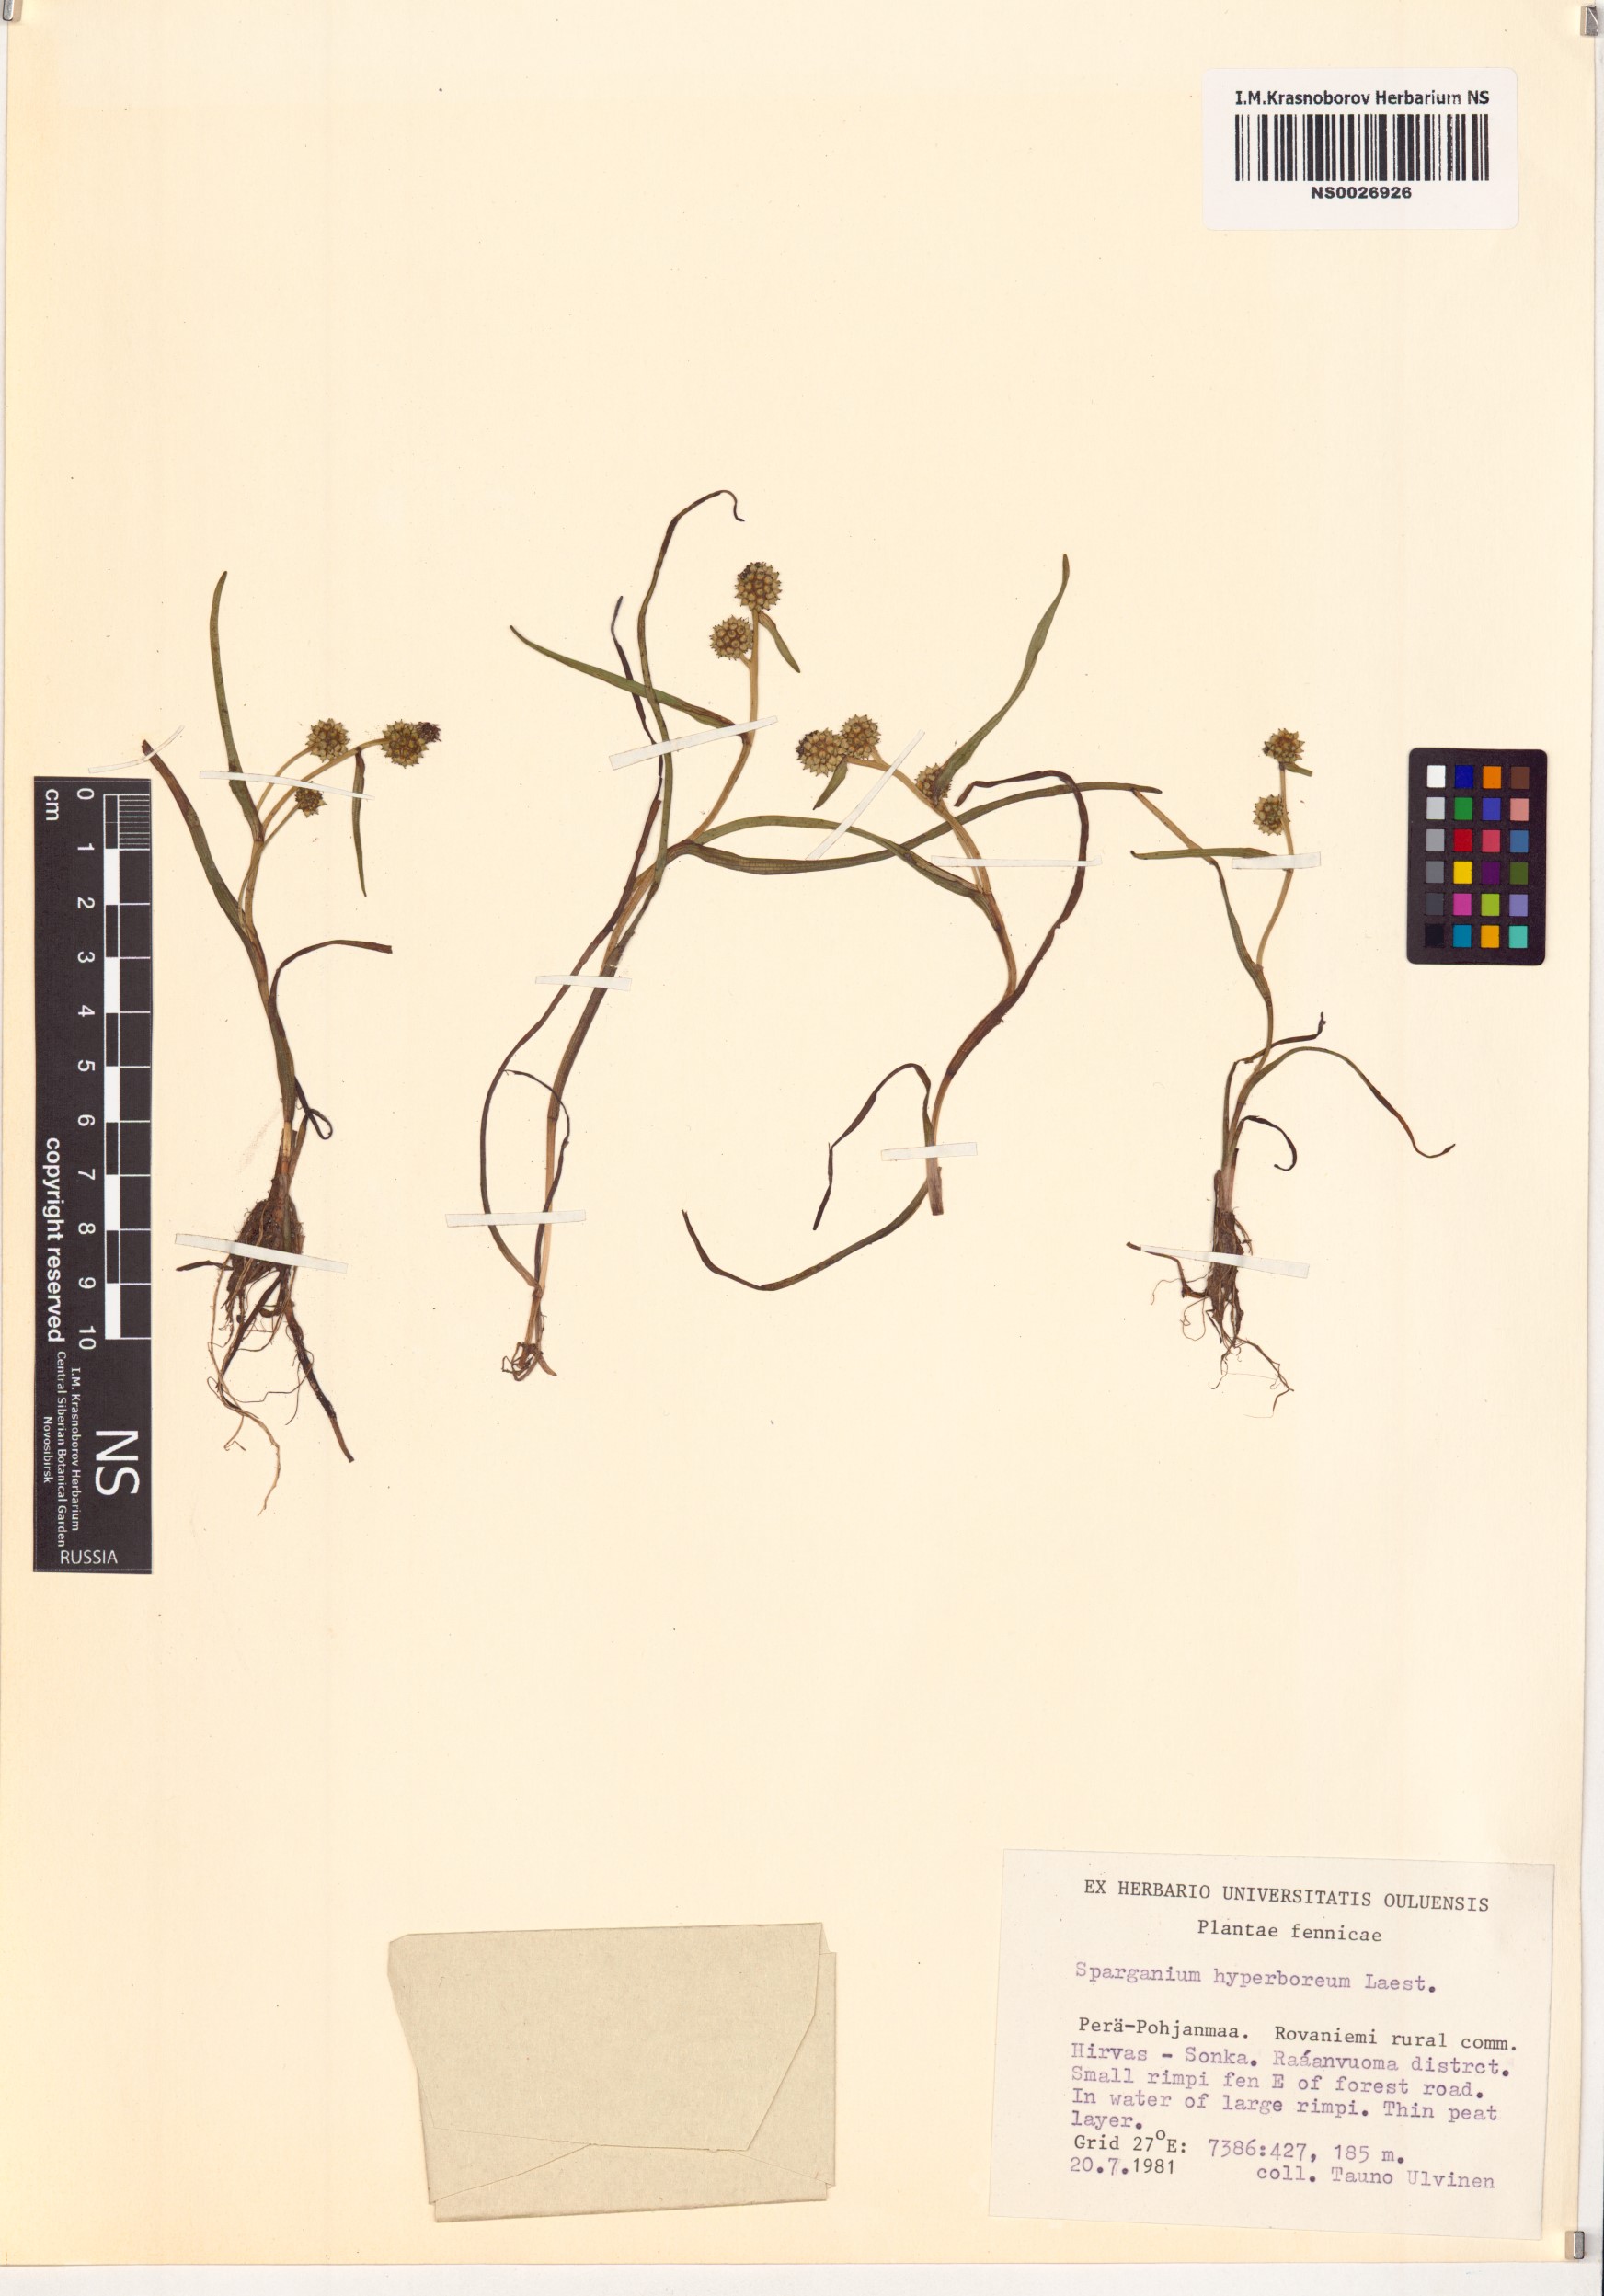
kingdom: Plantae
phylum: Tracheophyta
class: Liliopsida
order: Poales
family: Typhaceae
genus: Sparganium
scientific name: Sparganium hyperboreum
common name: Arctic burreed
